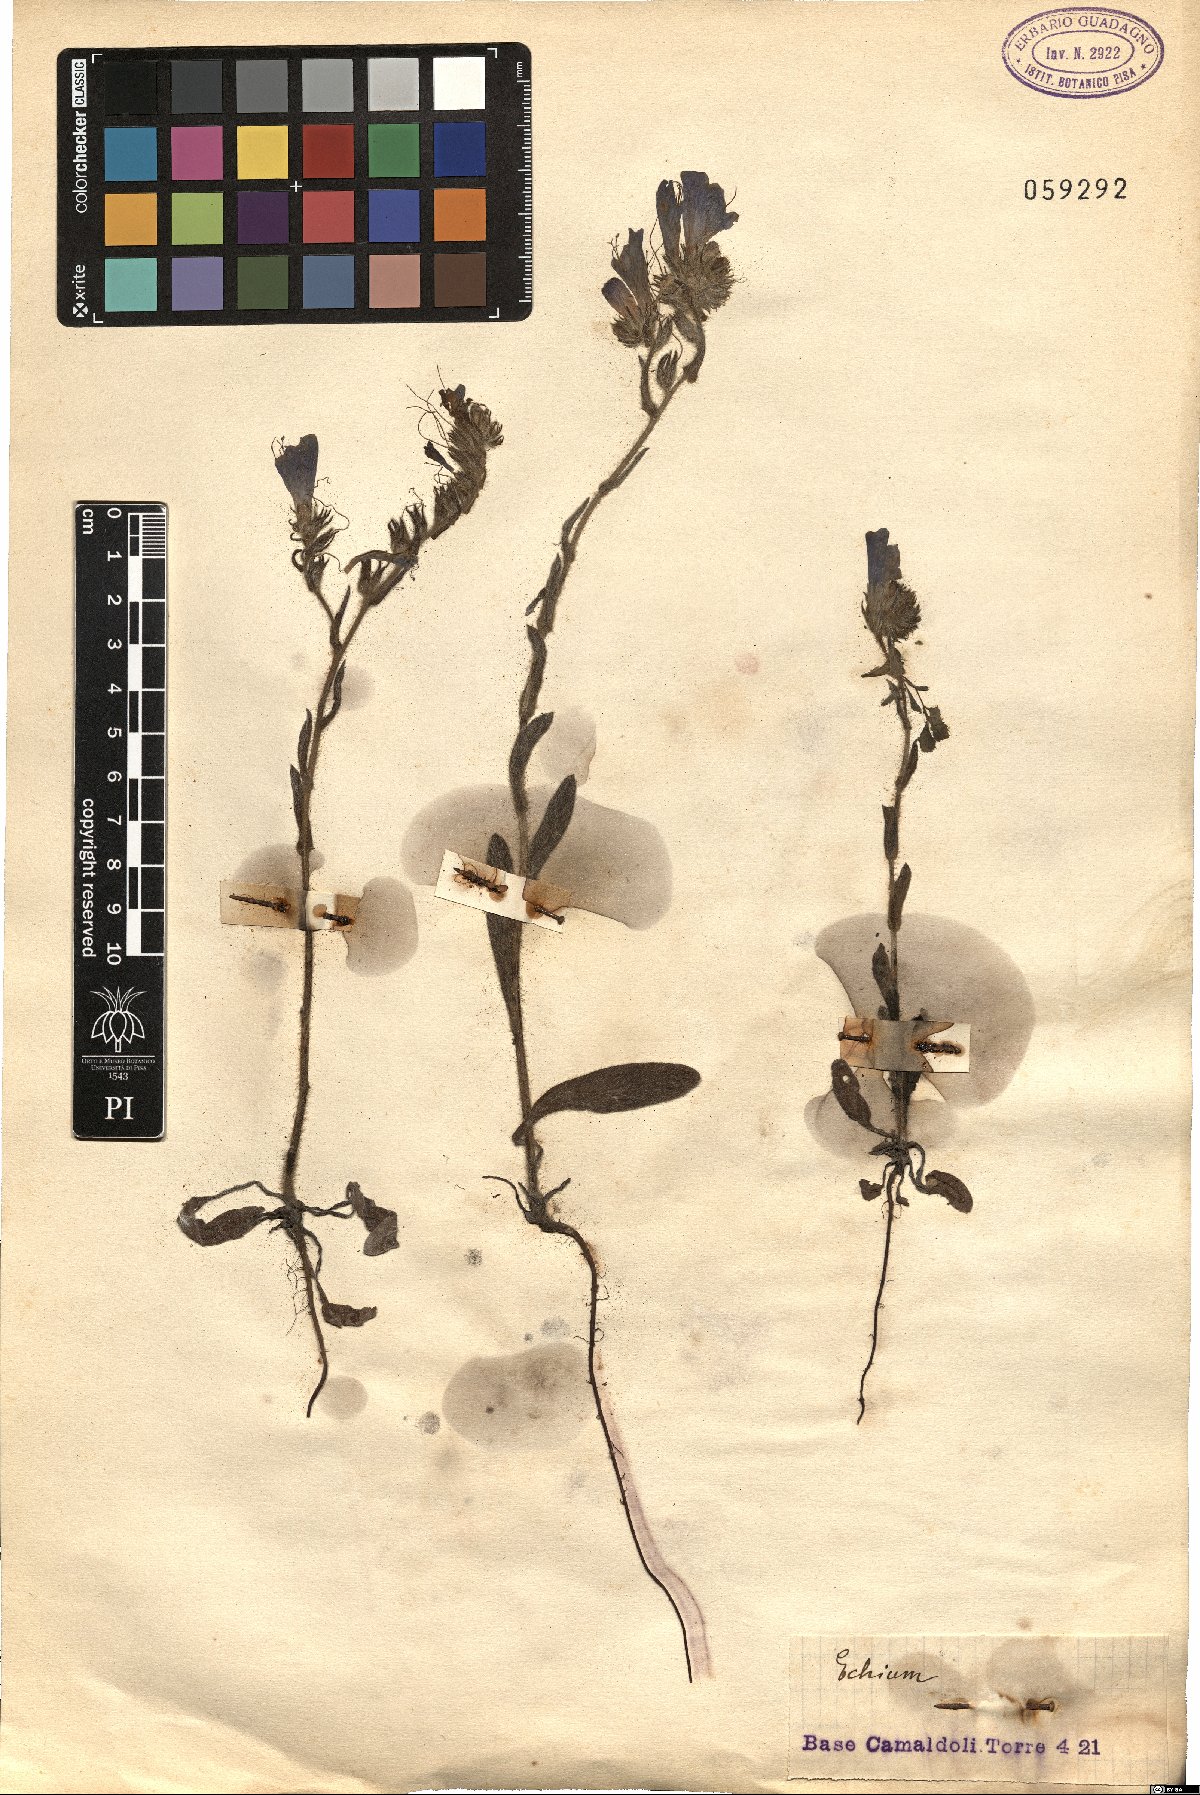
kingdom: Plantae
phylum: Tracheophyta
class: Magnoliopsida
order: Boraginales
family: Boraginaceae
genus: Echium
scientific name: Echium
